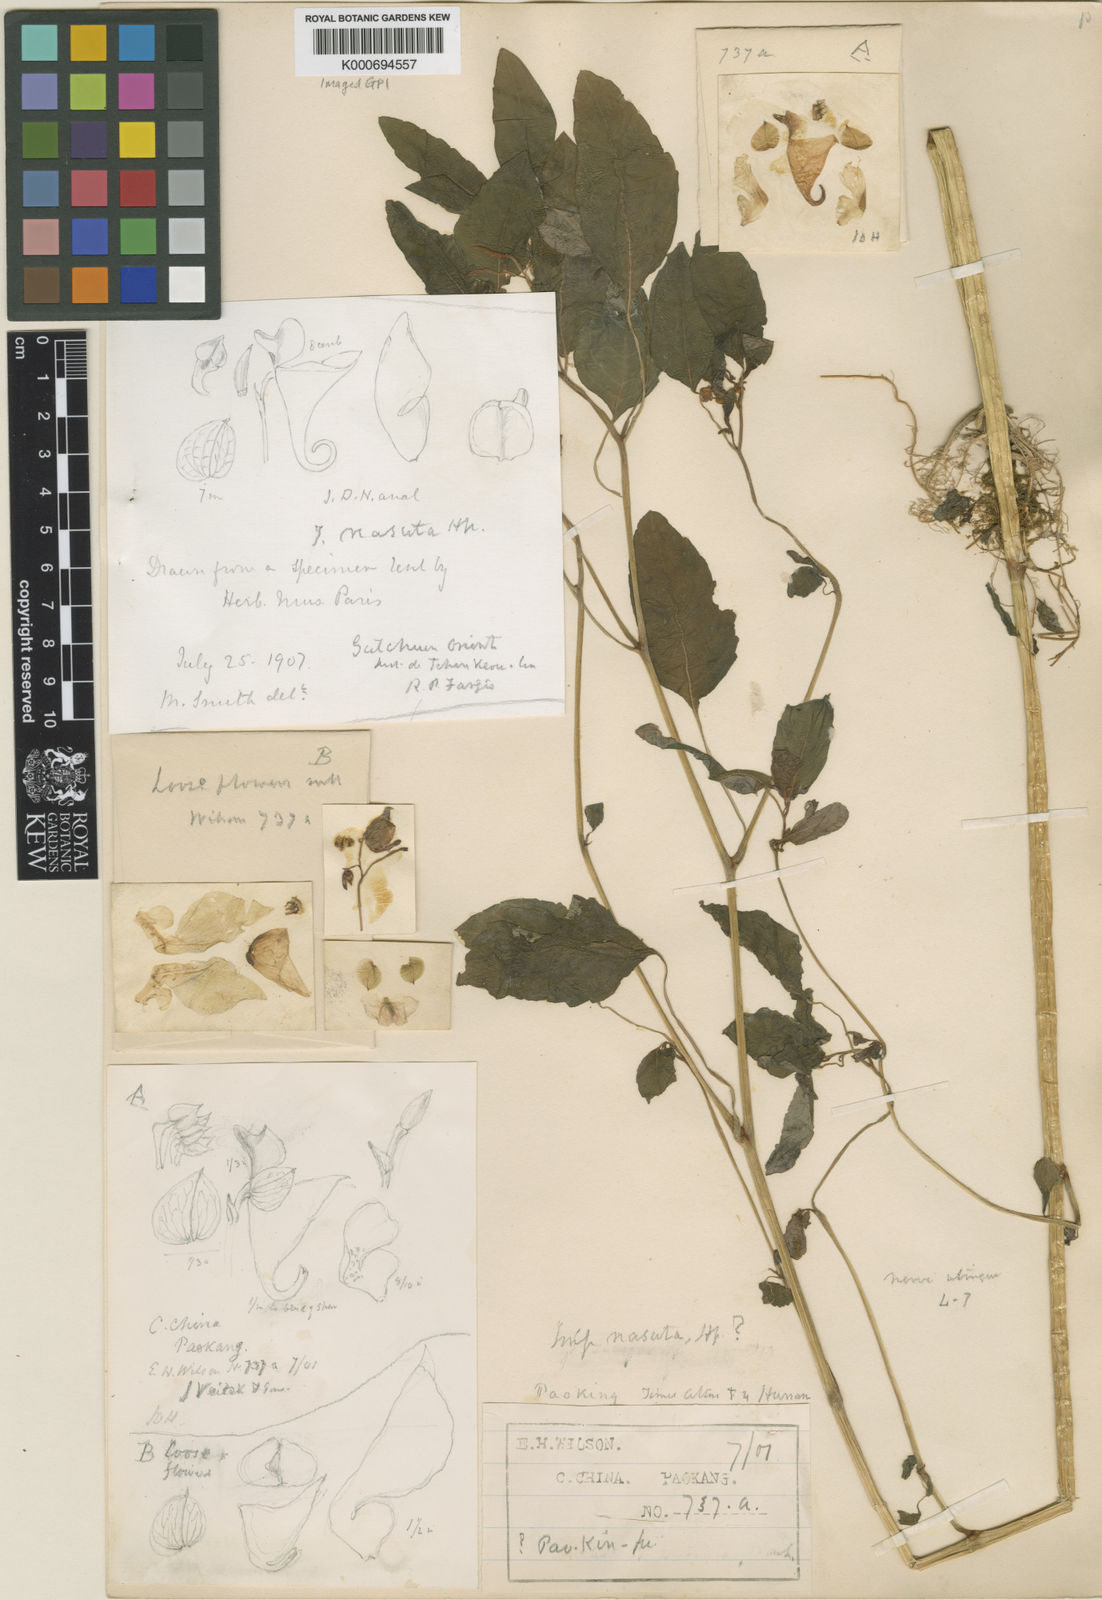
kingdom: Plantae
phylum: Tracheophyta
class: Magnoliopsida
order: Ericales
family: Balsaminaceae
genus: Impatiens
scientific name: Impatiens nasuta
